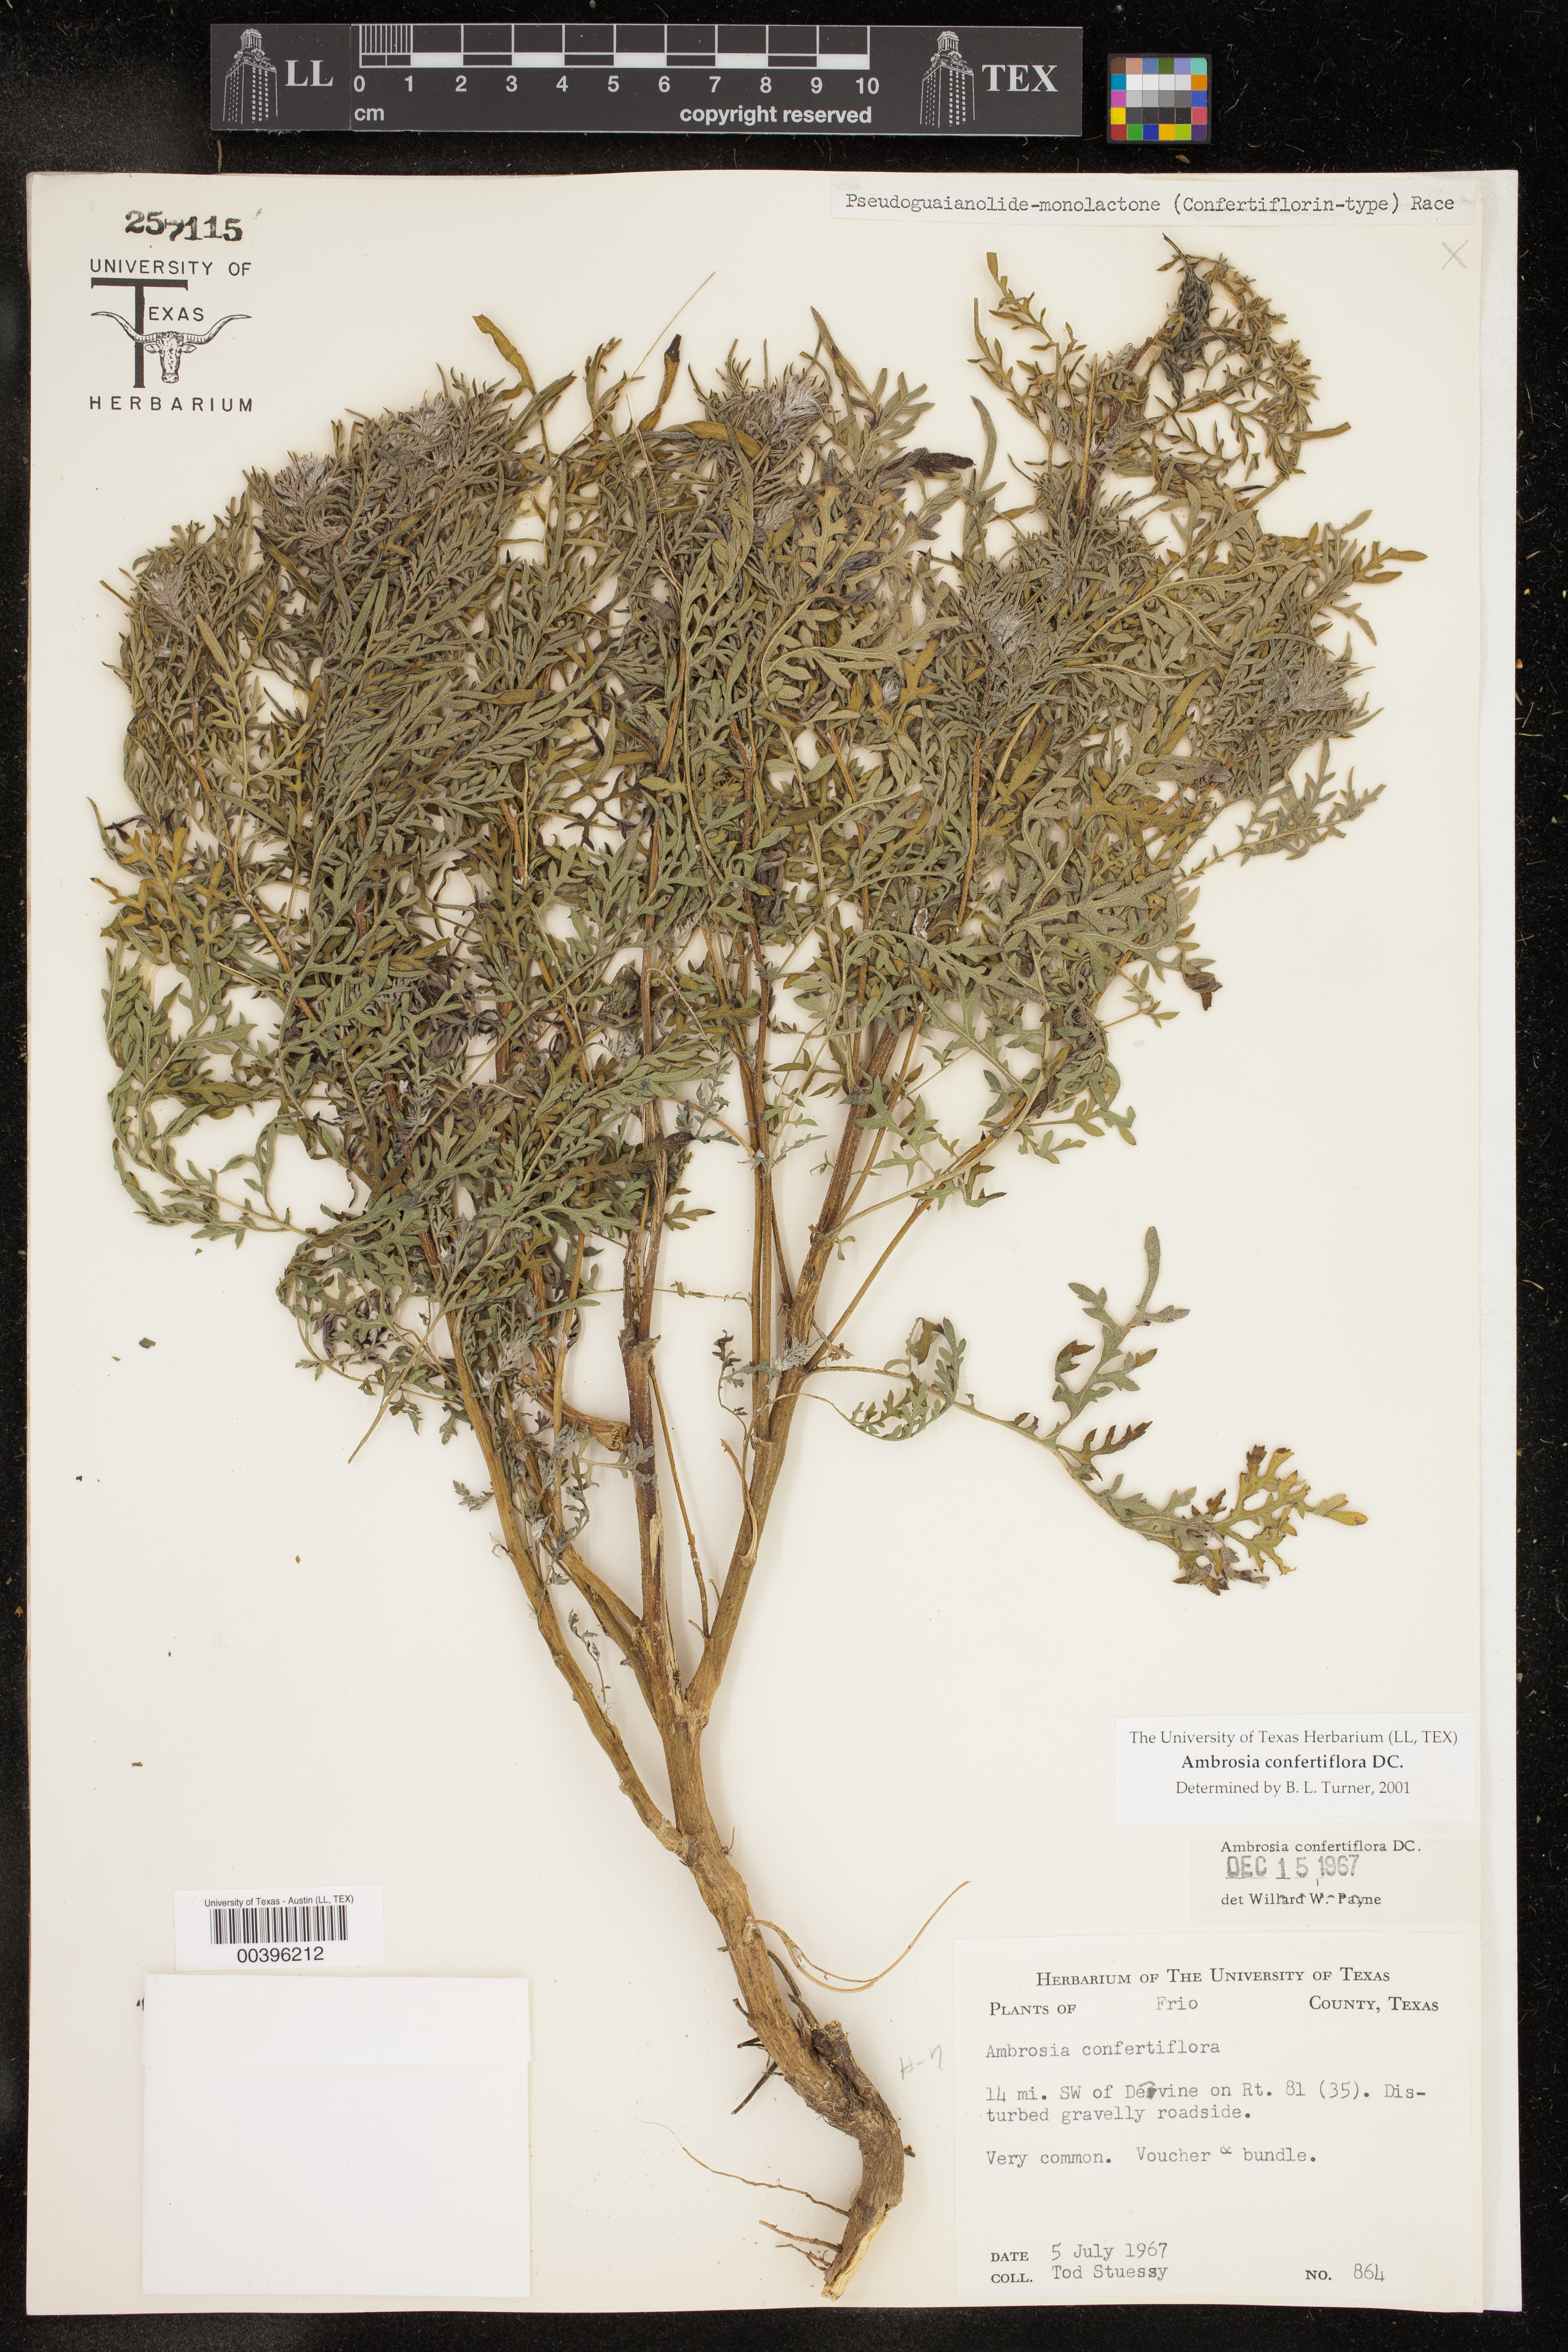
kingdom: Plantae
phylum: Tracheophyta
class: Magnoliopsida
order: Asterales
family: Asteraceae
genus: Ambrosia
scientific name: Ambrosia confertiflora
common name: Bur ragweed
